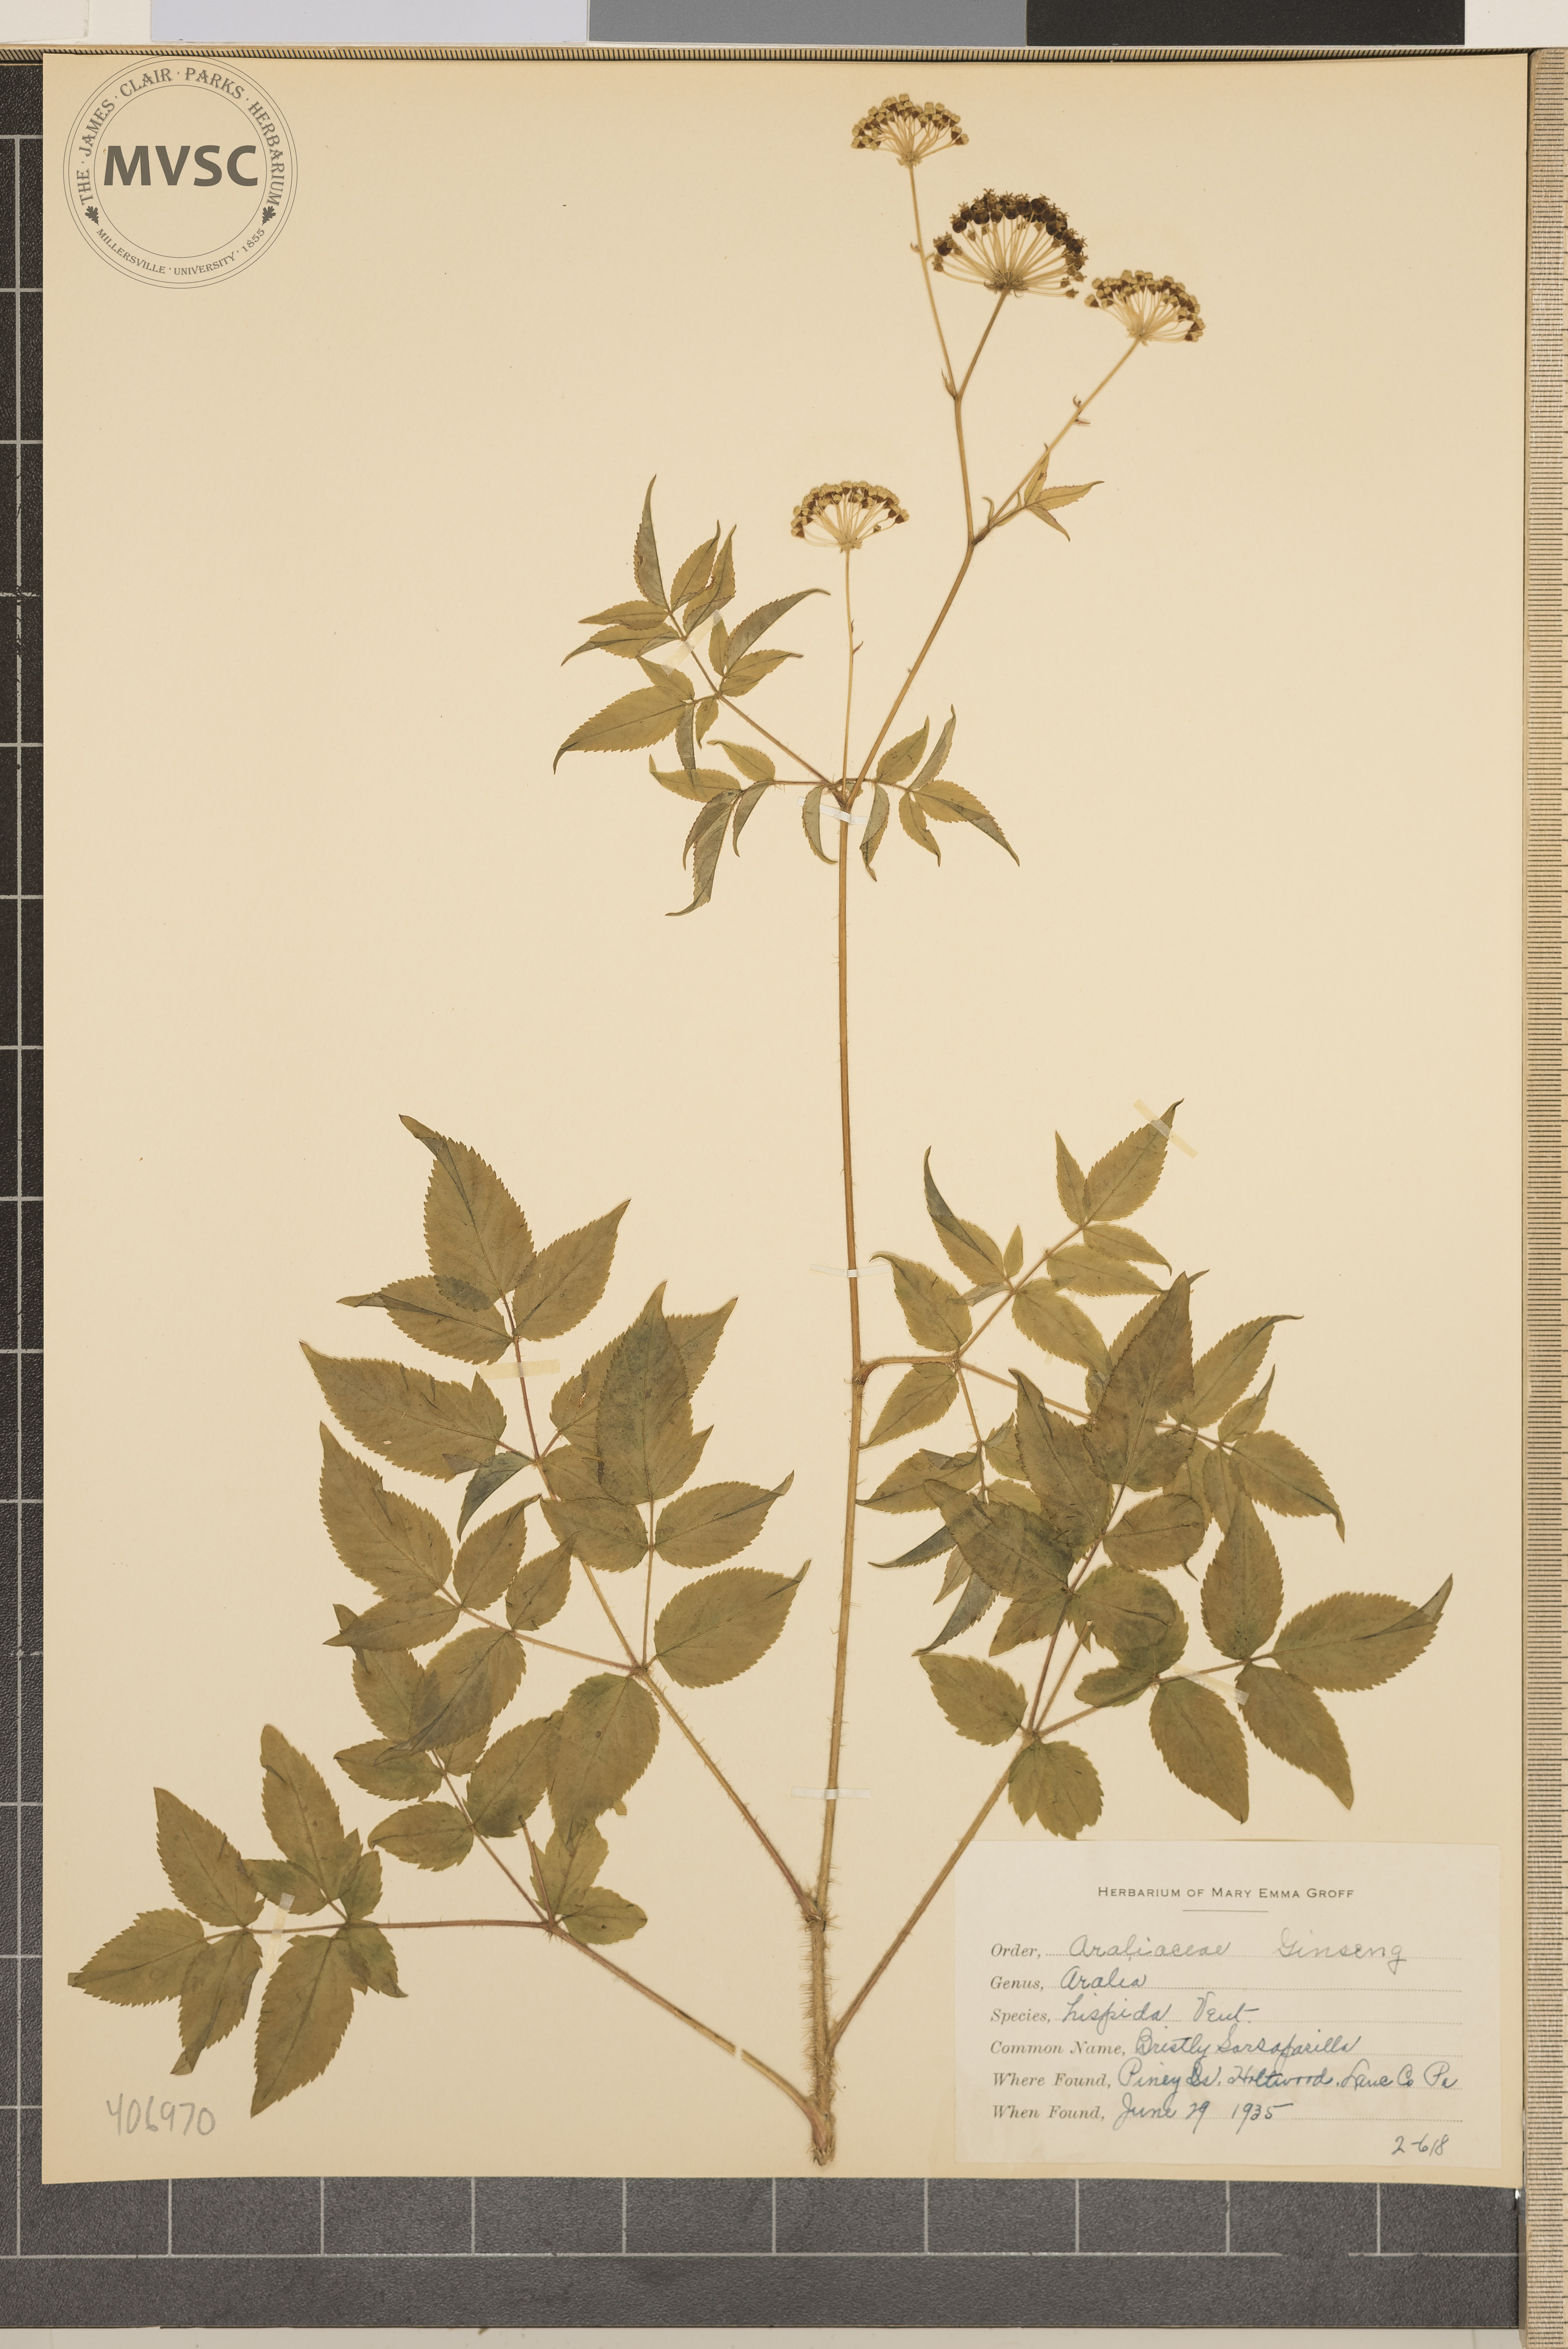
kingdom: Plantae
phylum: Tracheophyta
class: Magnoliopsida
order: Apiales
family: Araliaceae
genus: Aralia
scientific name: Aralia hispida
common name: Bristly Sarsaparilla
